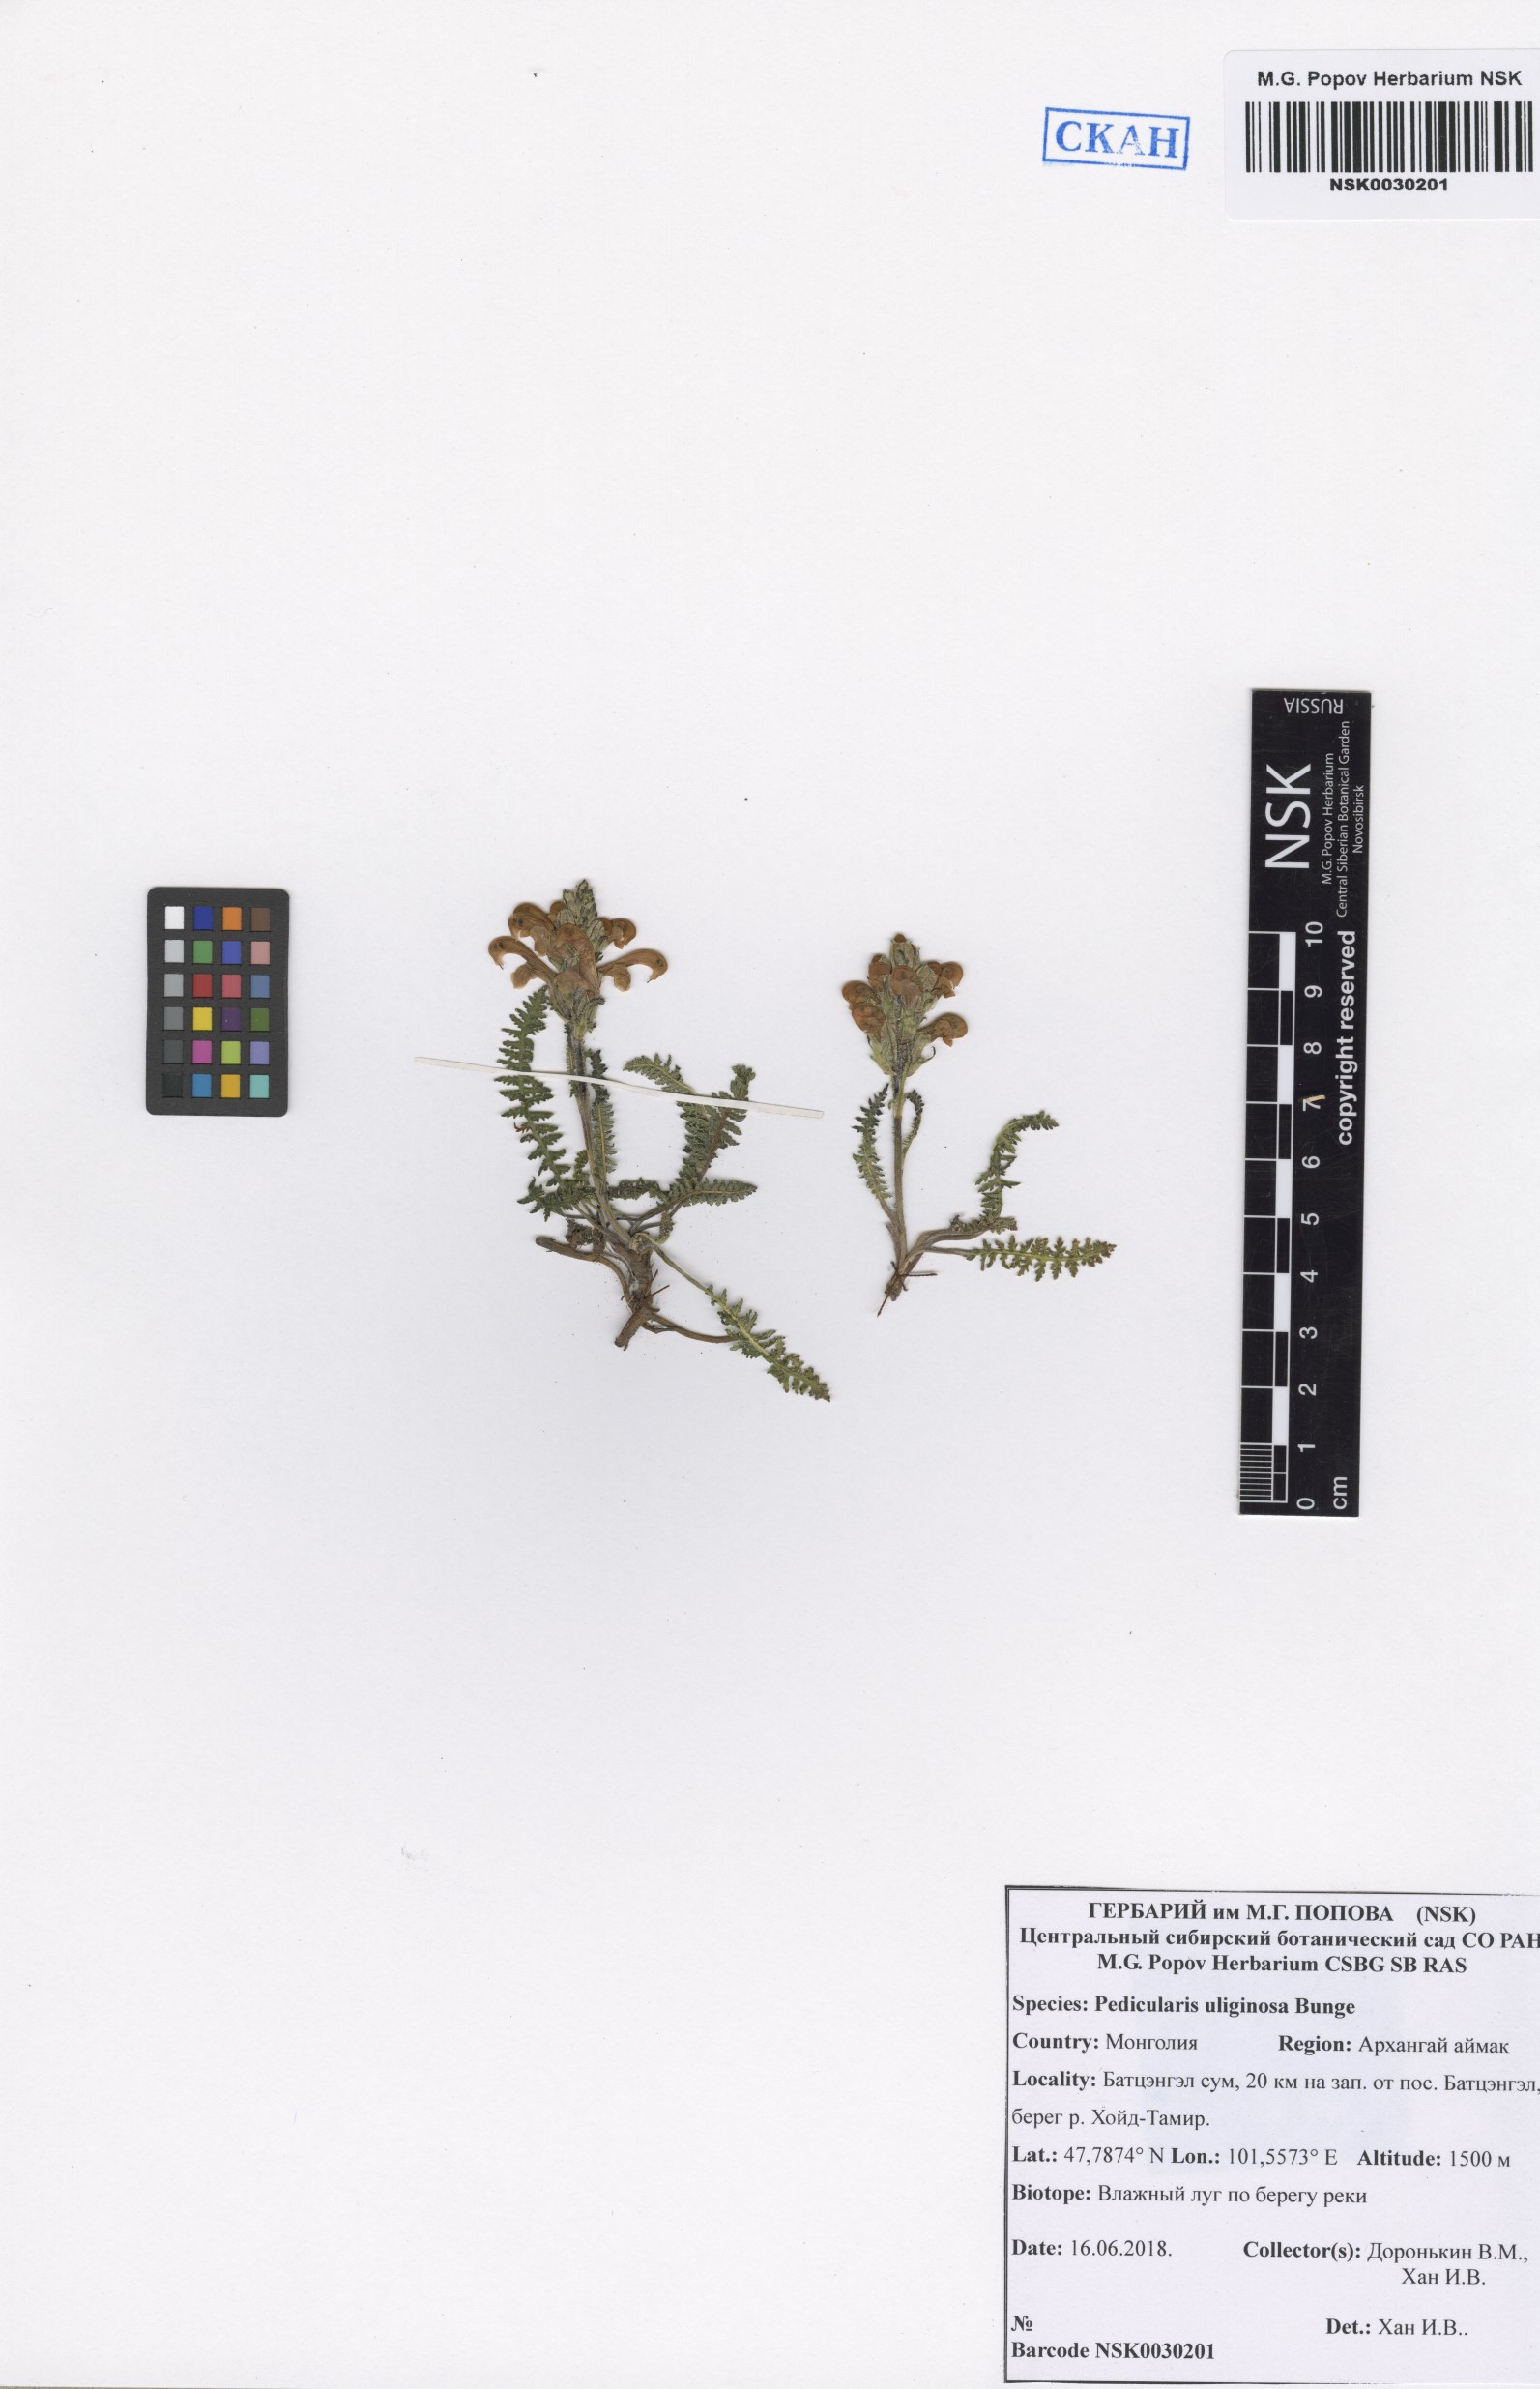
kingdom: Plantae
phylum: Tracheophyta
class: Magnoliopsida
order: Lamiales
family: Orobanchaceae
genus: Pedicularis
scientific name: Pedicularis uliginosa
